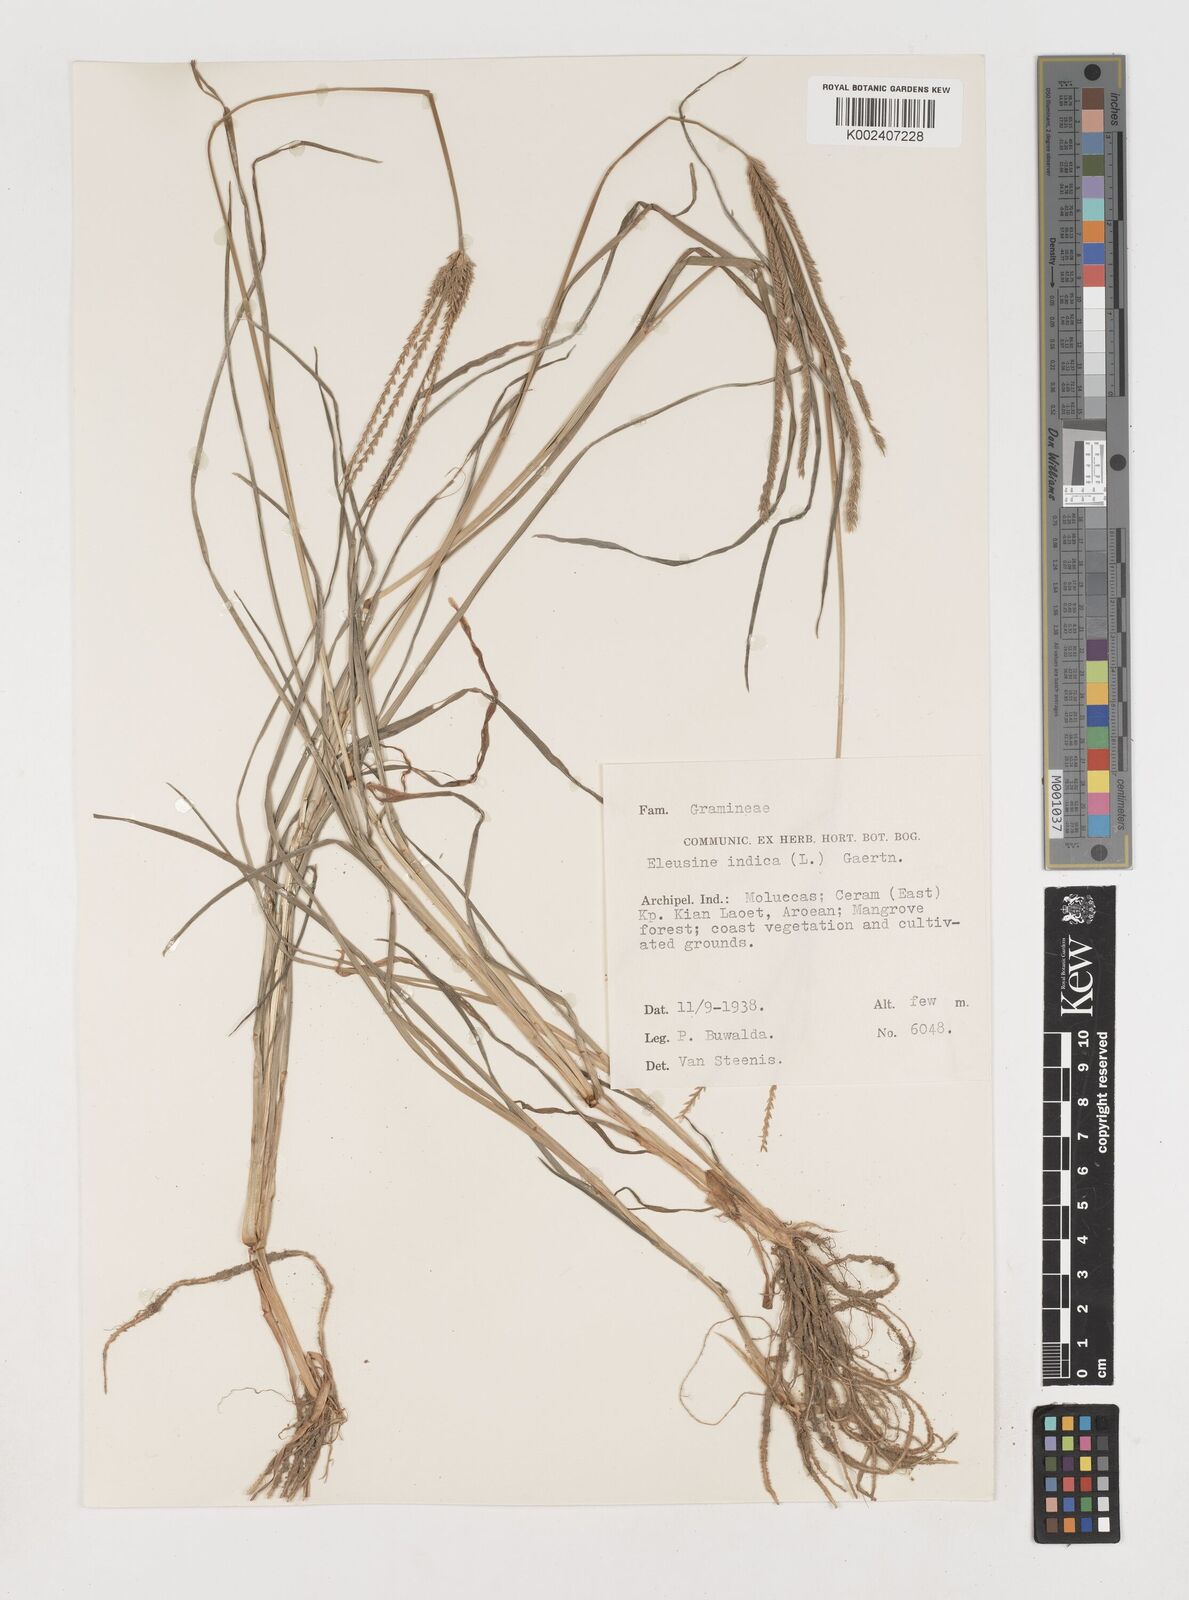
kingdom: Plantae
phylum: Tracheophyta
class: Liliopsida
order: Poales
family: Poaceae
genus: Eleusine
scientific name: Eleusine indica
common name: Yard-grass
